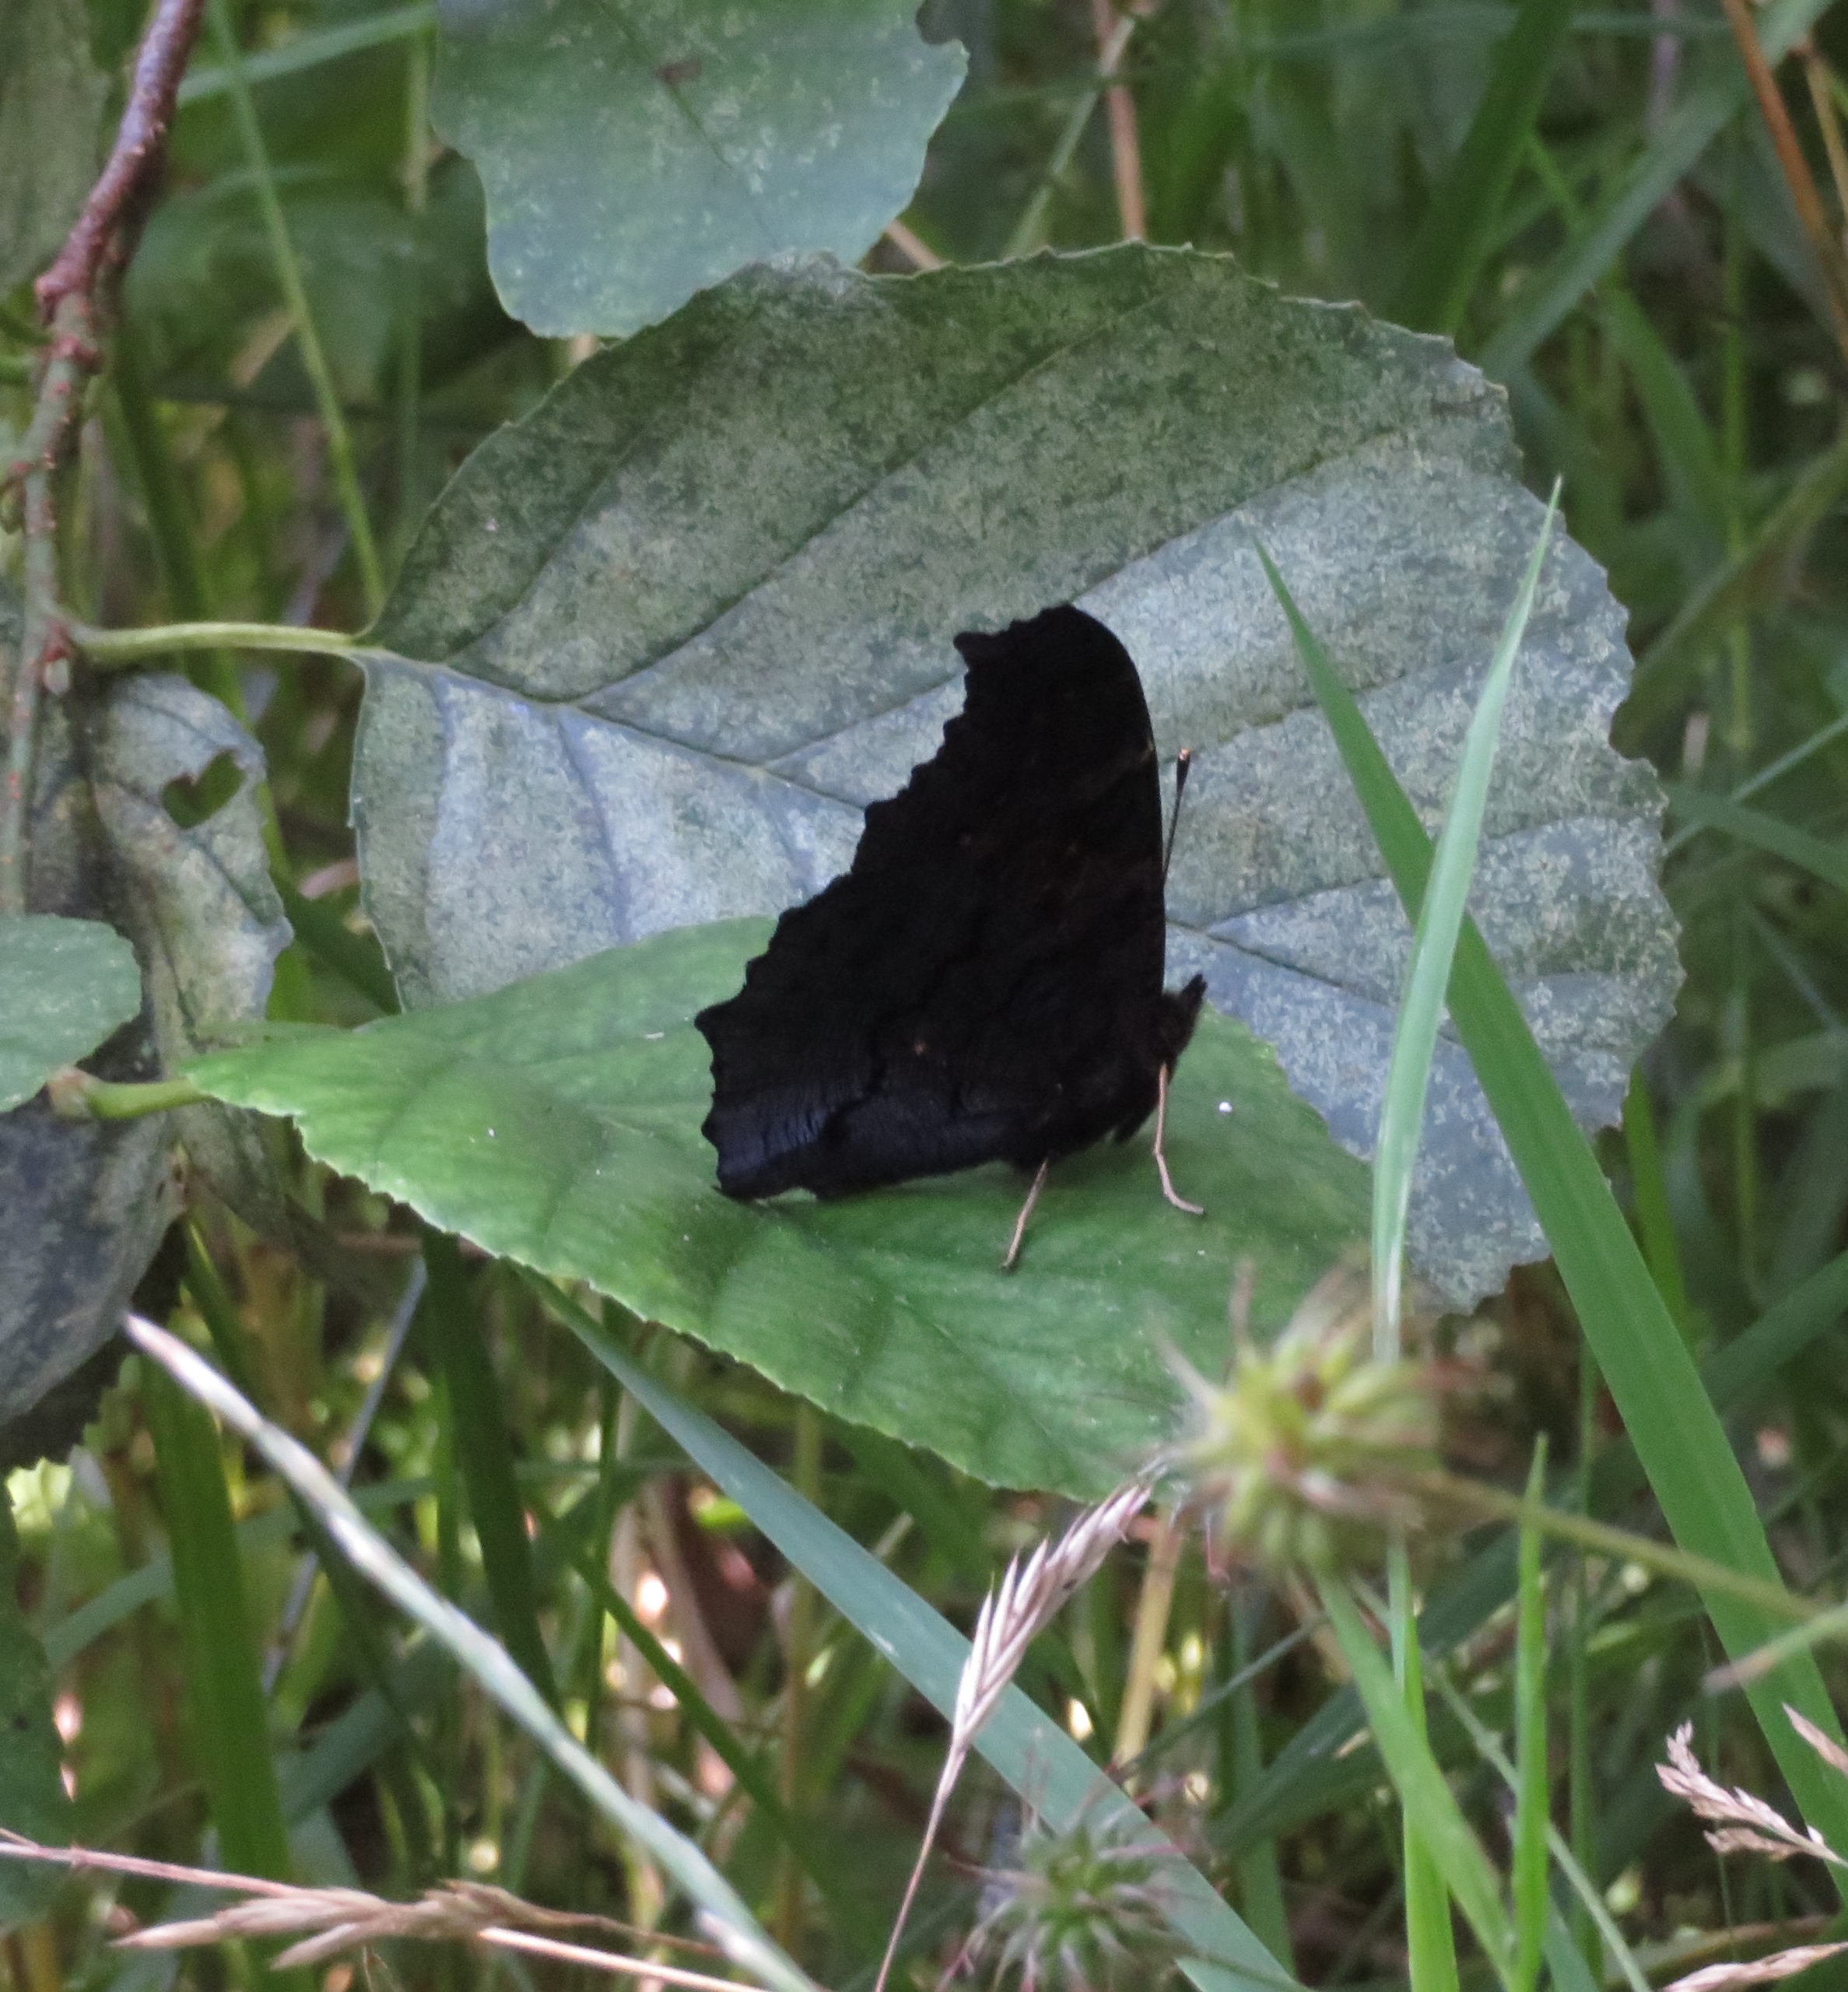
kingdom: Animalia
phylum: Arthropoda
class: Insecta
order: Lepidoptera
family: Nymphalidae
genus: Aglais
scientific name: Aglais io
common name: Dagpåfugleøje
